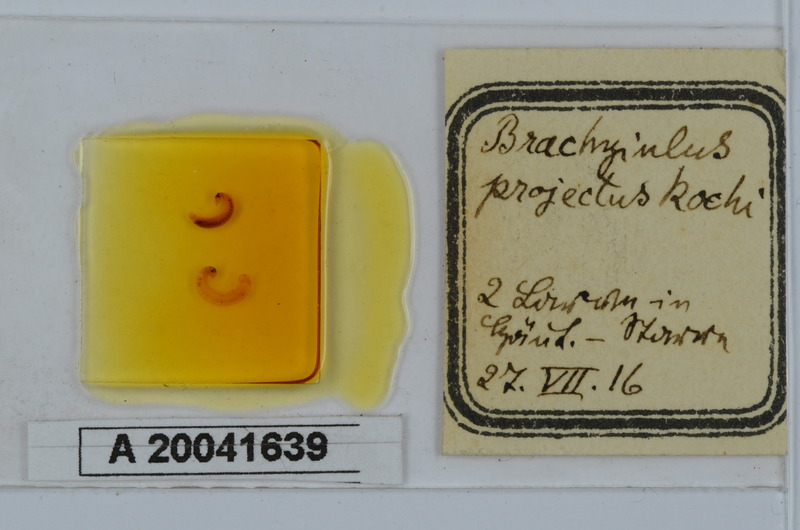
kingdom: Animalia
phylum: Arthropoda
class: Diplopoda
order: Julida
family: Julidae
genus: Megaphyllum
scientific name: Megaphyllum projectum
